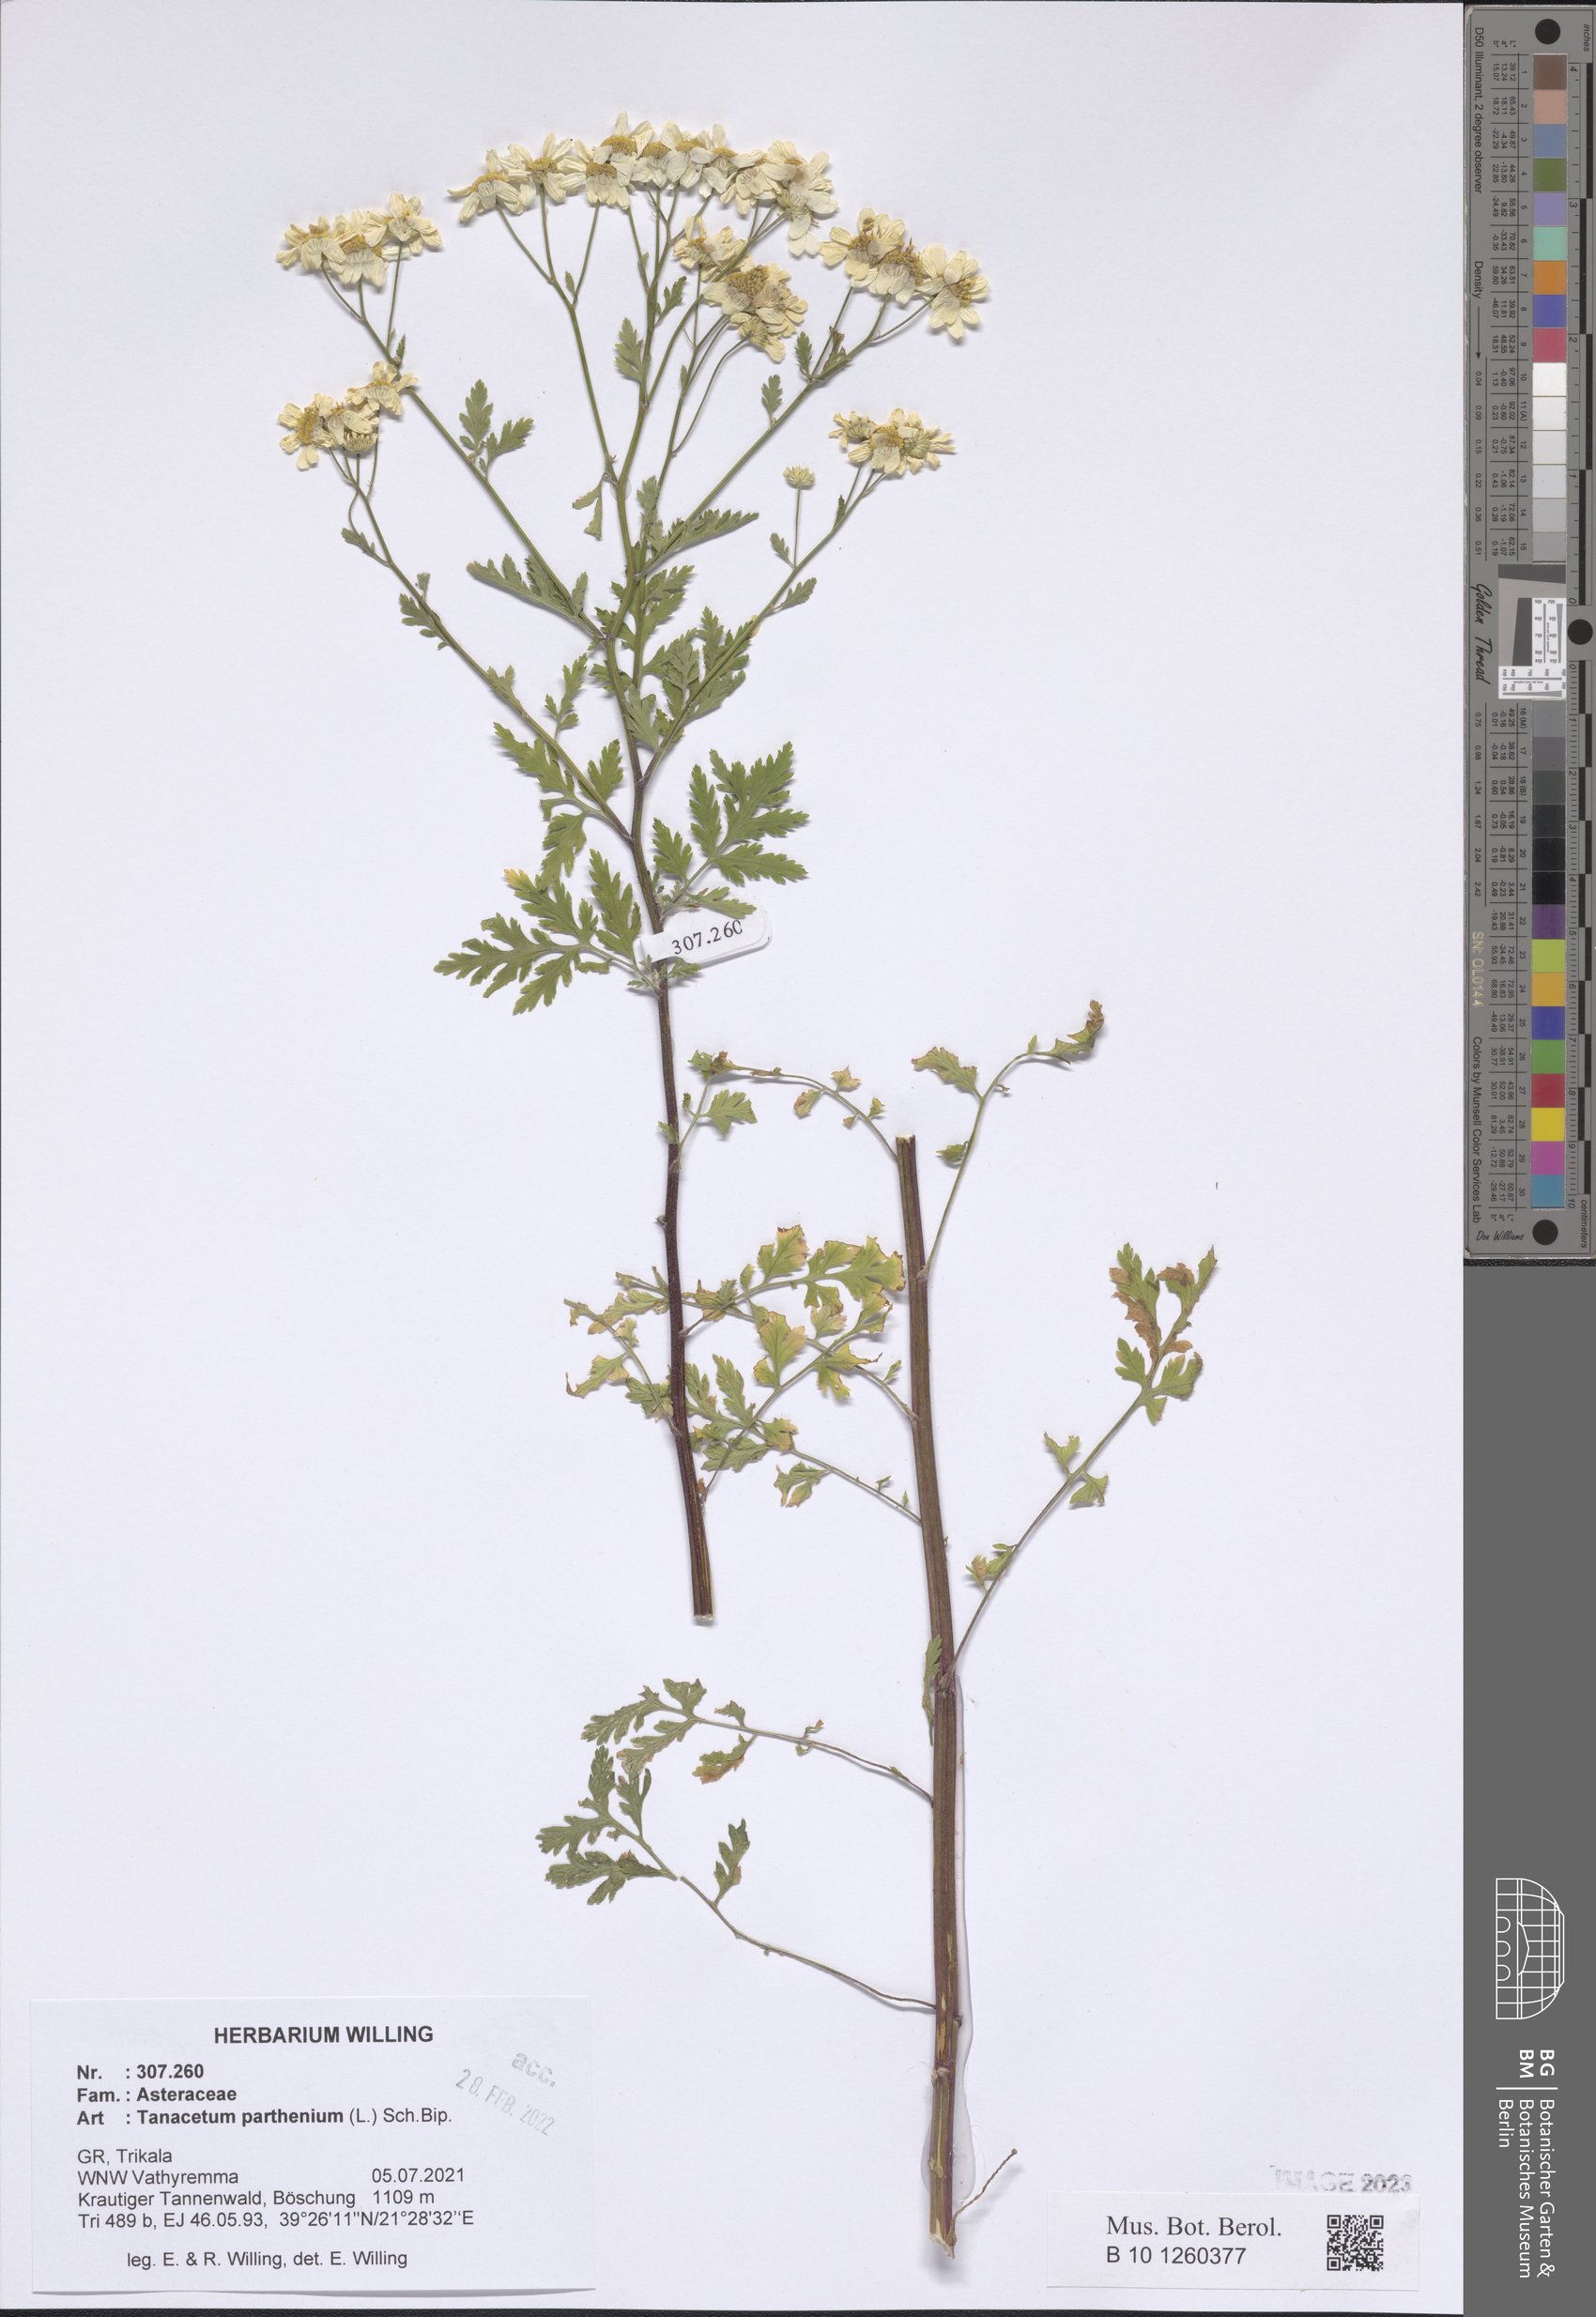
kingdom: Plantae
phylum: Tracheophyta
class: Magnoliopsida
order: Asterales
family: Asteraceae
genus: Tanacetum
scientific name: Tanacetum parthenium
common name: Feverfew
